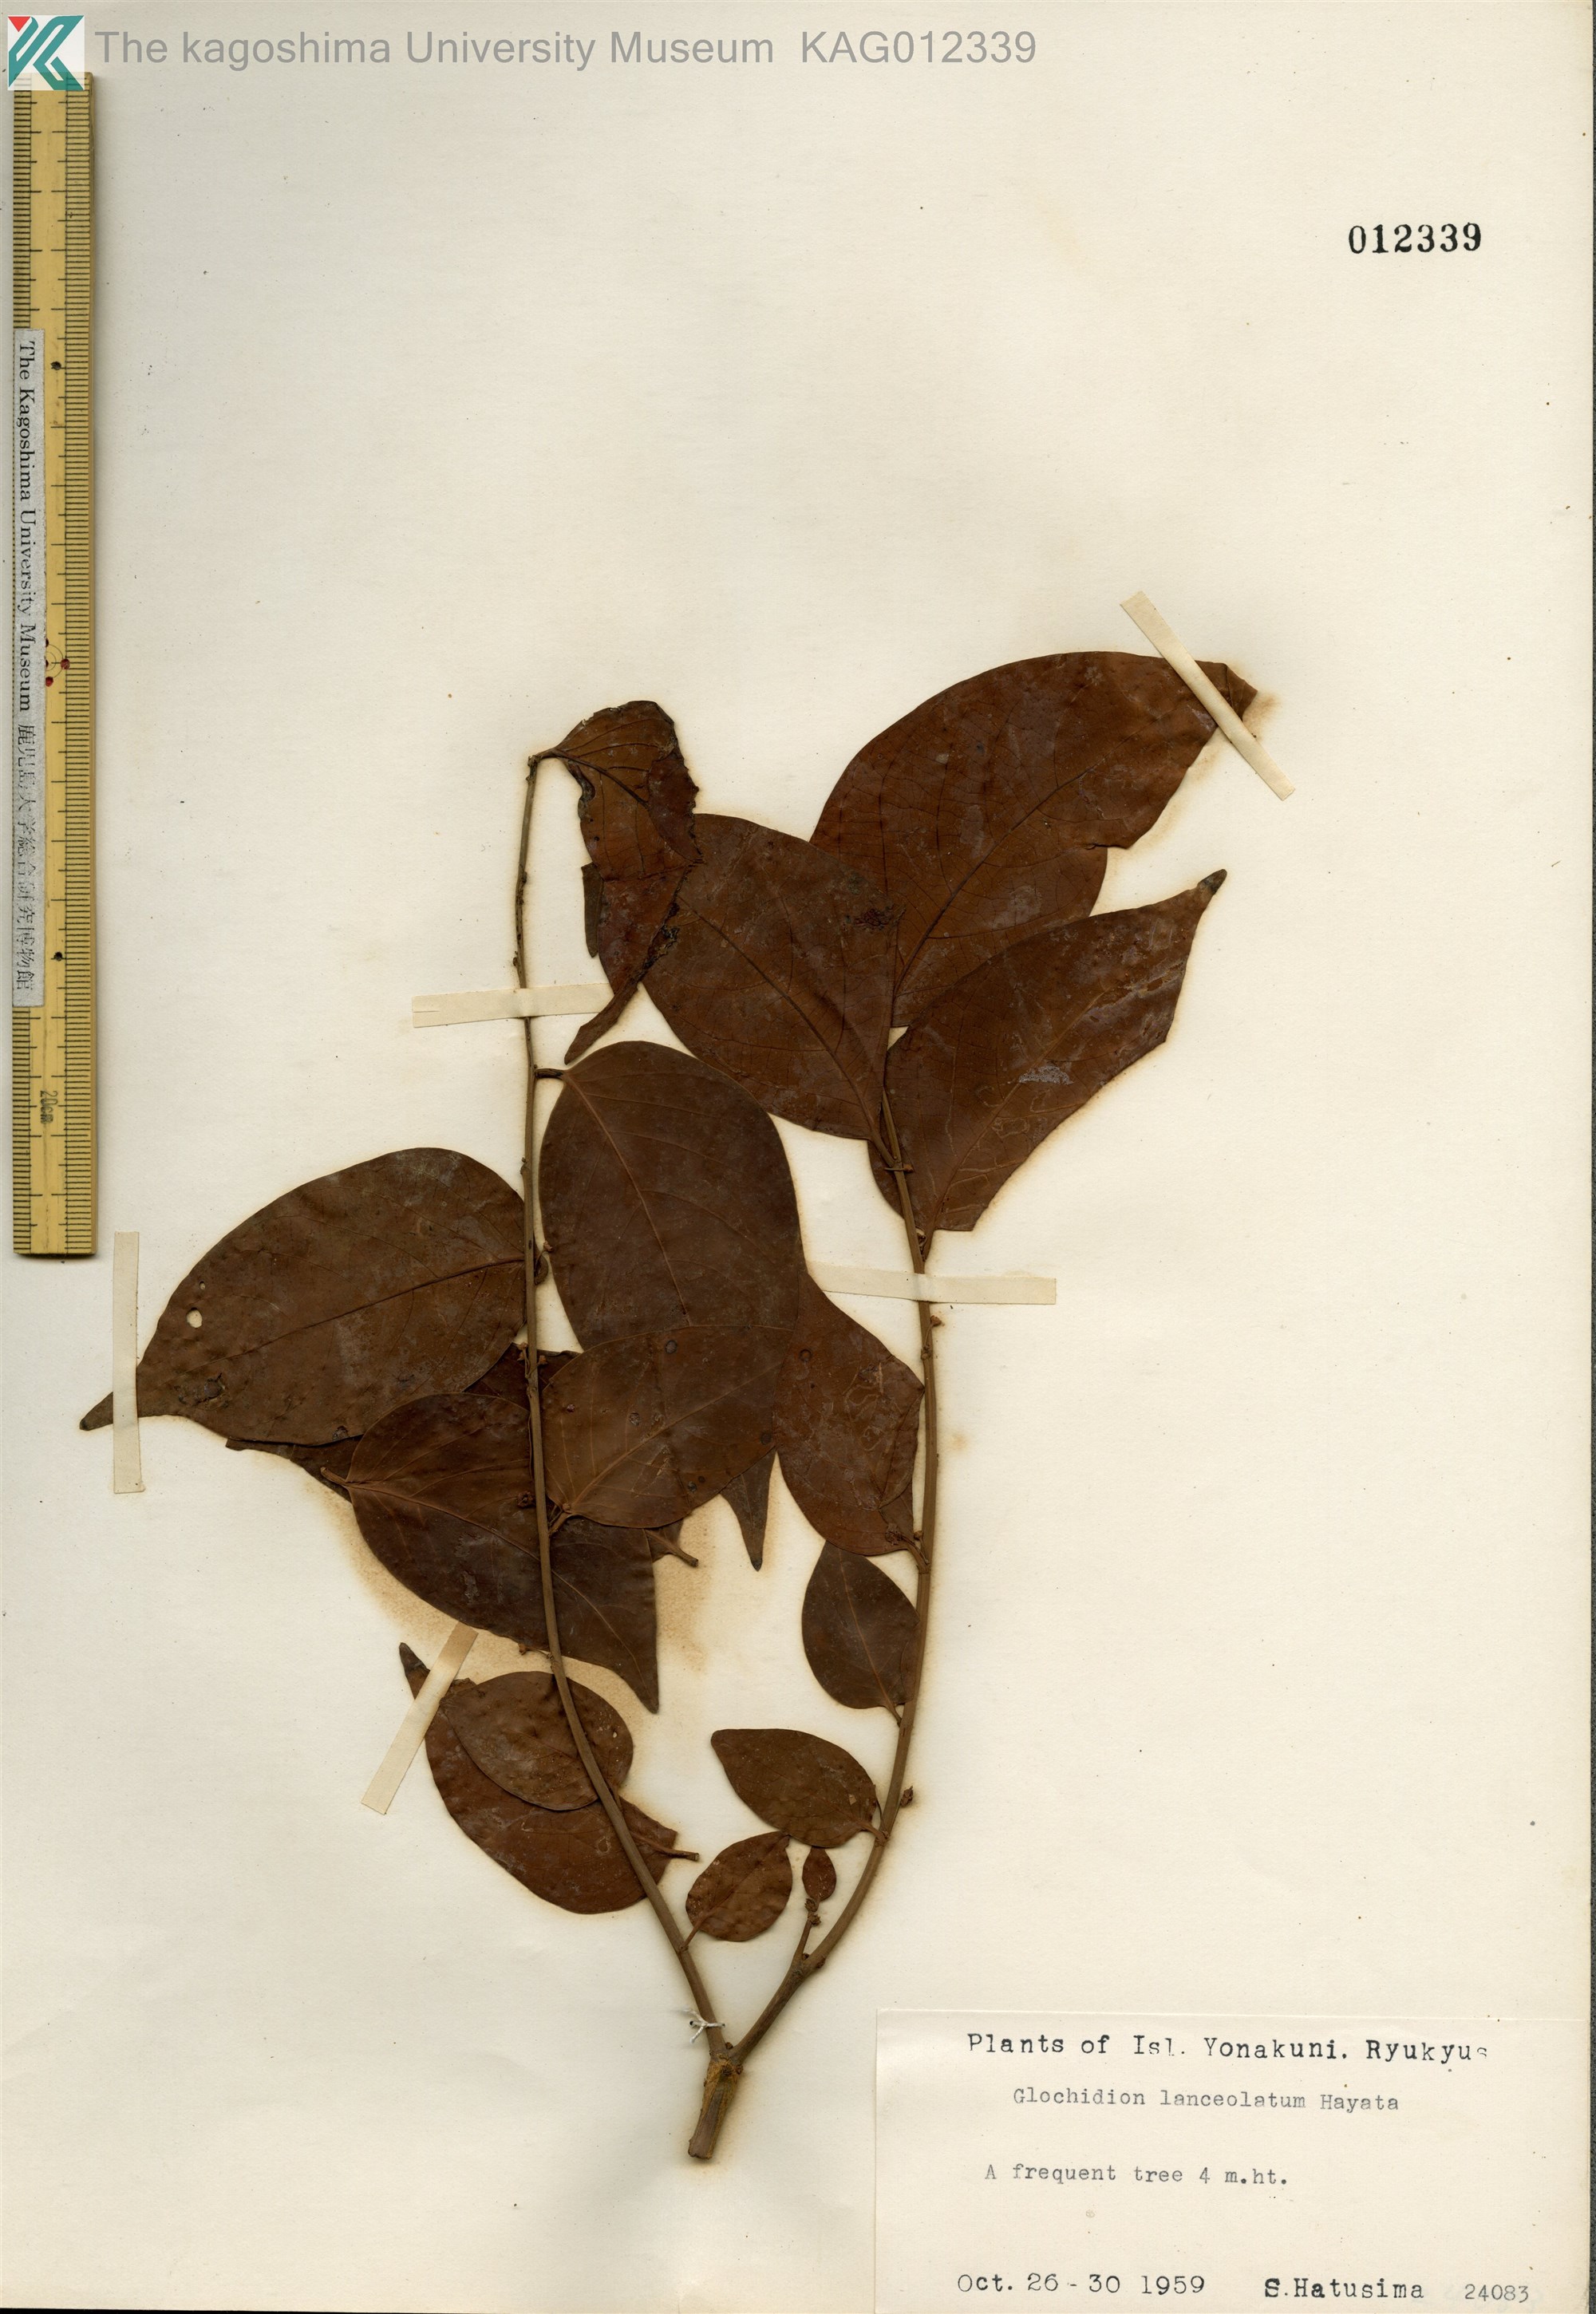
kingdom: Plantae
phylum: Tracheophyta
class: Magnoliopsida
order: Malpighiales
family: Phyllanthaceae
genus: Glochidion
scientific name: Glochidion lanceolatum
